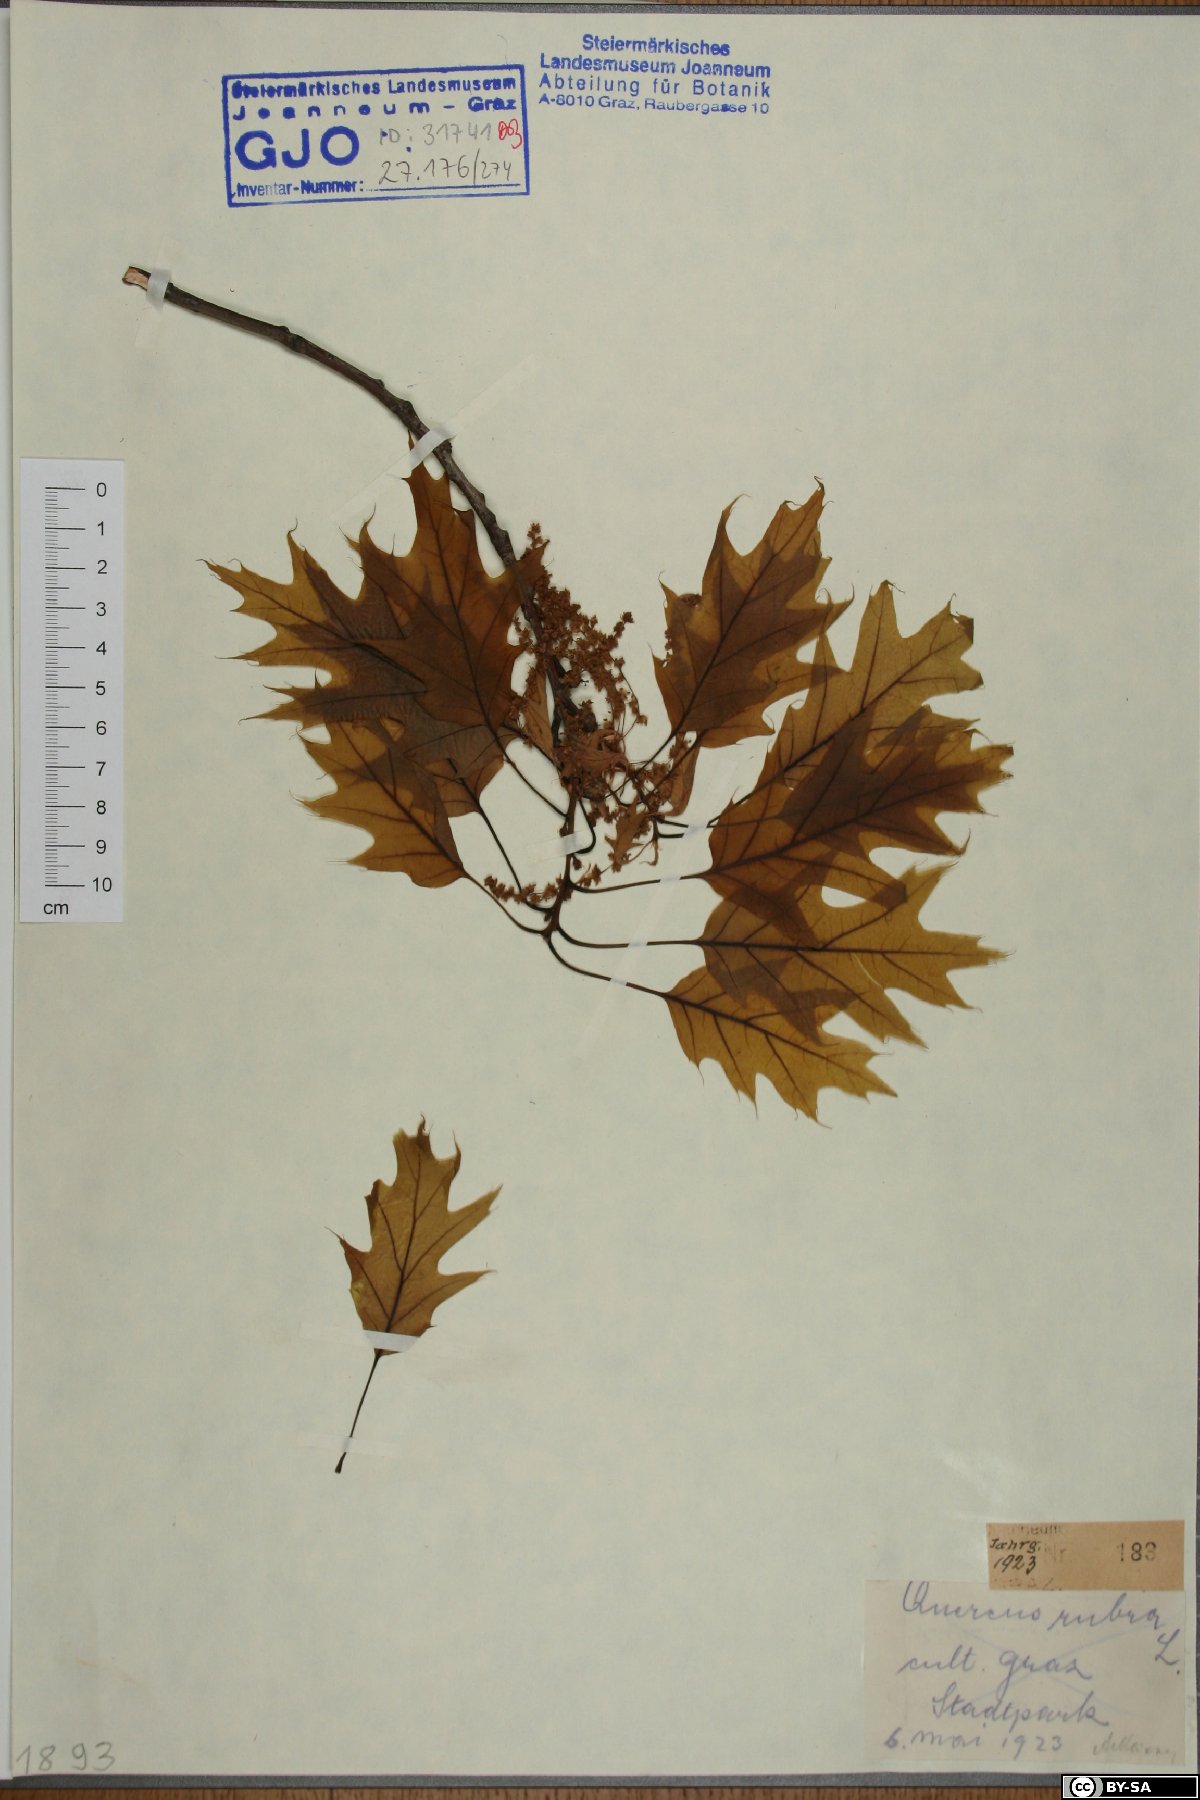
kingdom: Plantae
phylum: Tracheophyta
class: Magnoliopsida
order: Fagales
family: Fagaceae
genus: Quercus
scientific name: Quercus rubra
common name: Red oak
